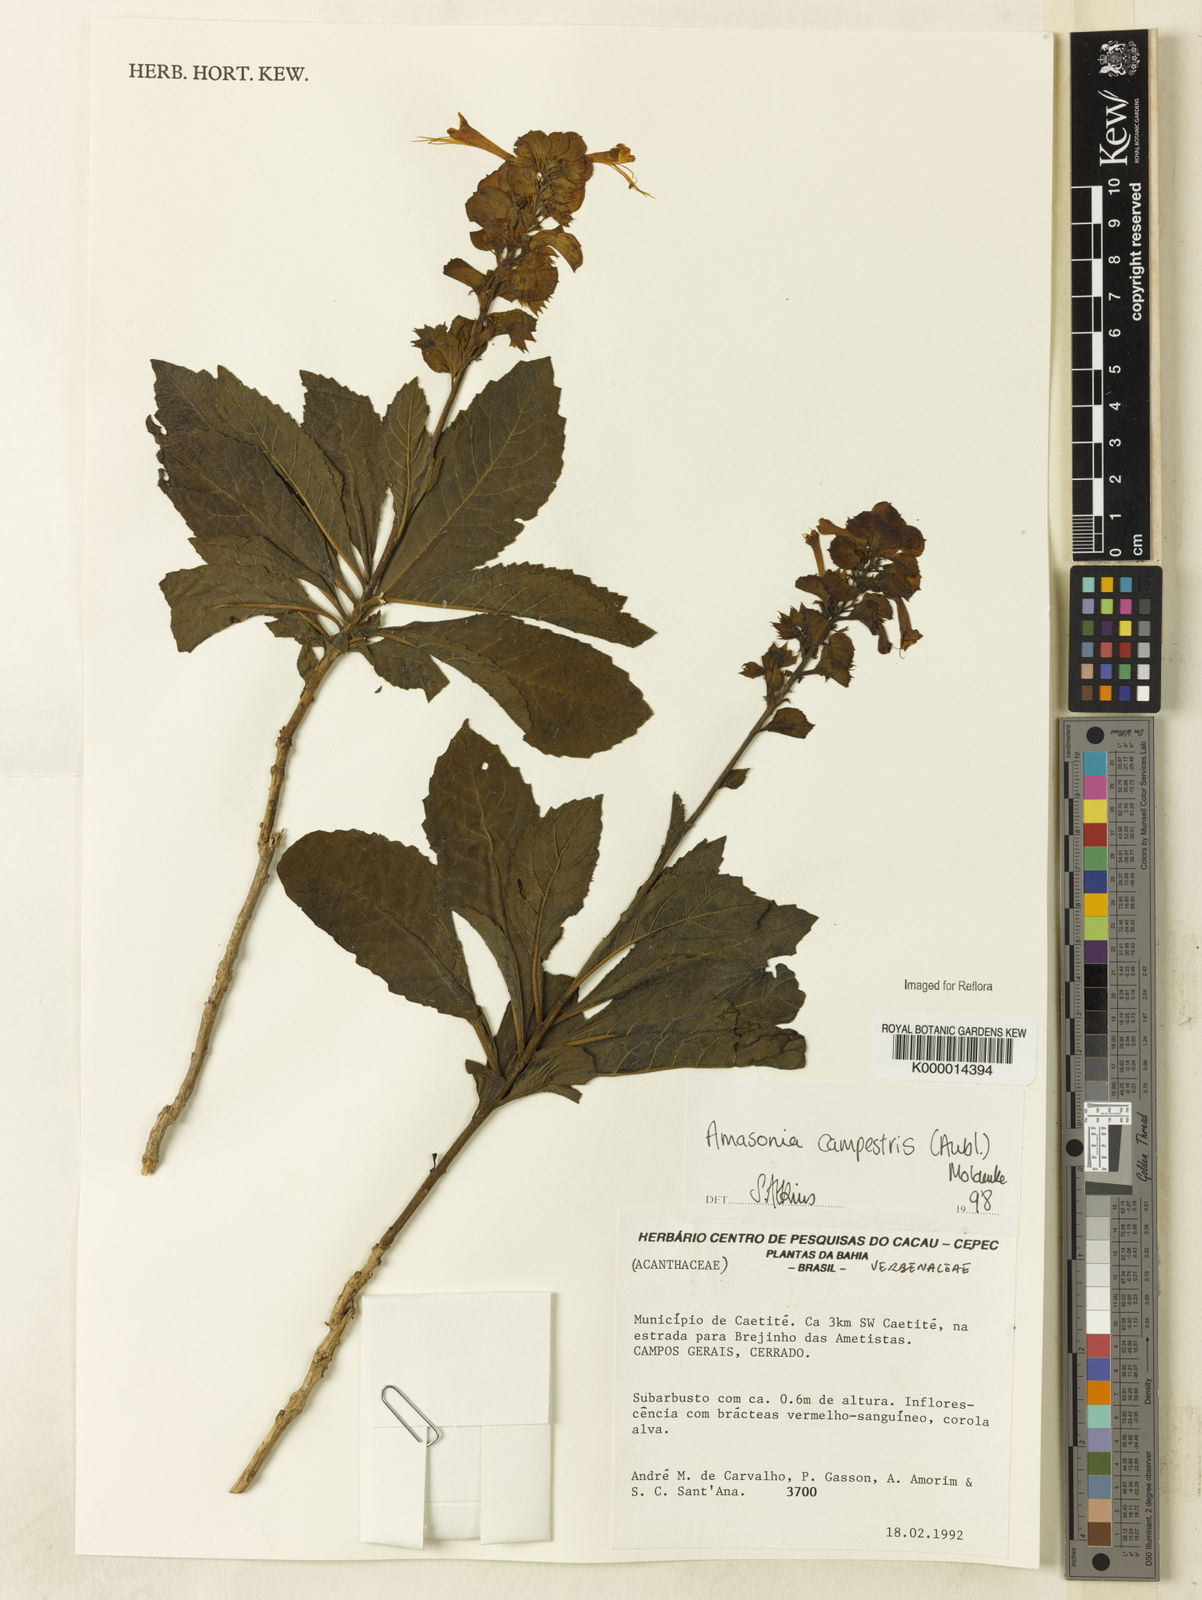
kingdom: Plantae
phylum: Tracheophyta
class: Magnoliopsida
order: Lamiales
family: Lamiaceae
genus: Amasonia
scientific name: Amasonia campestris
